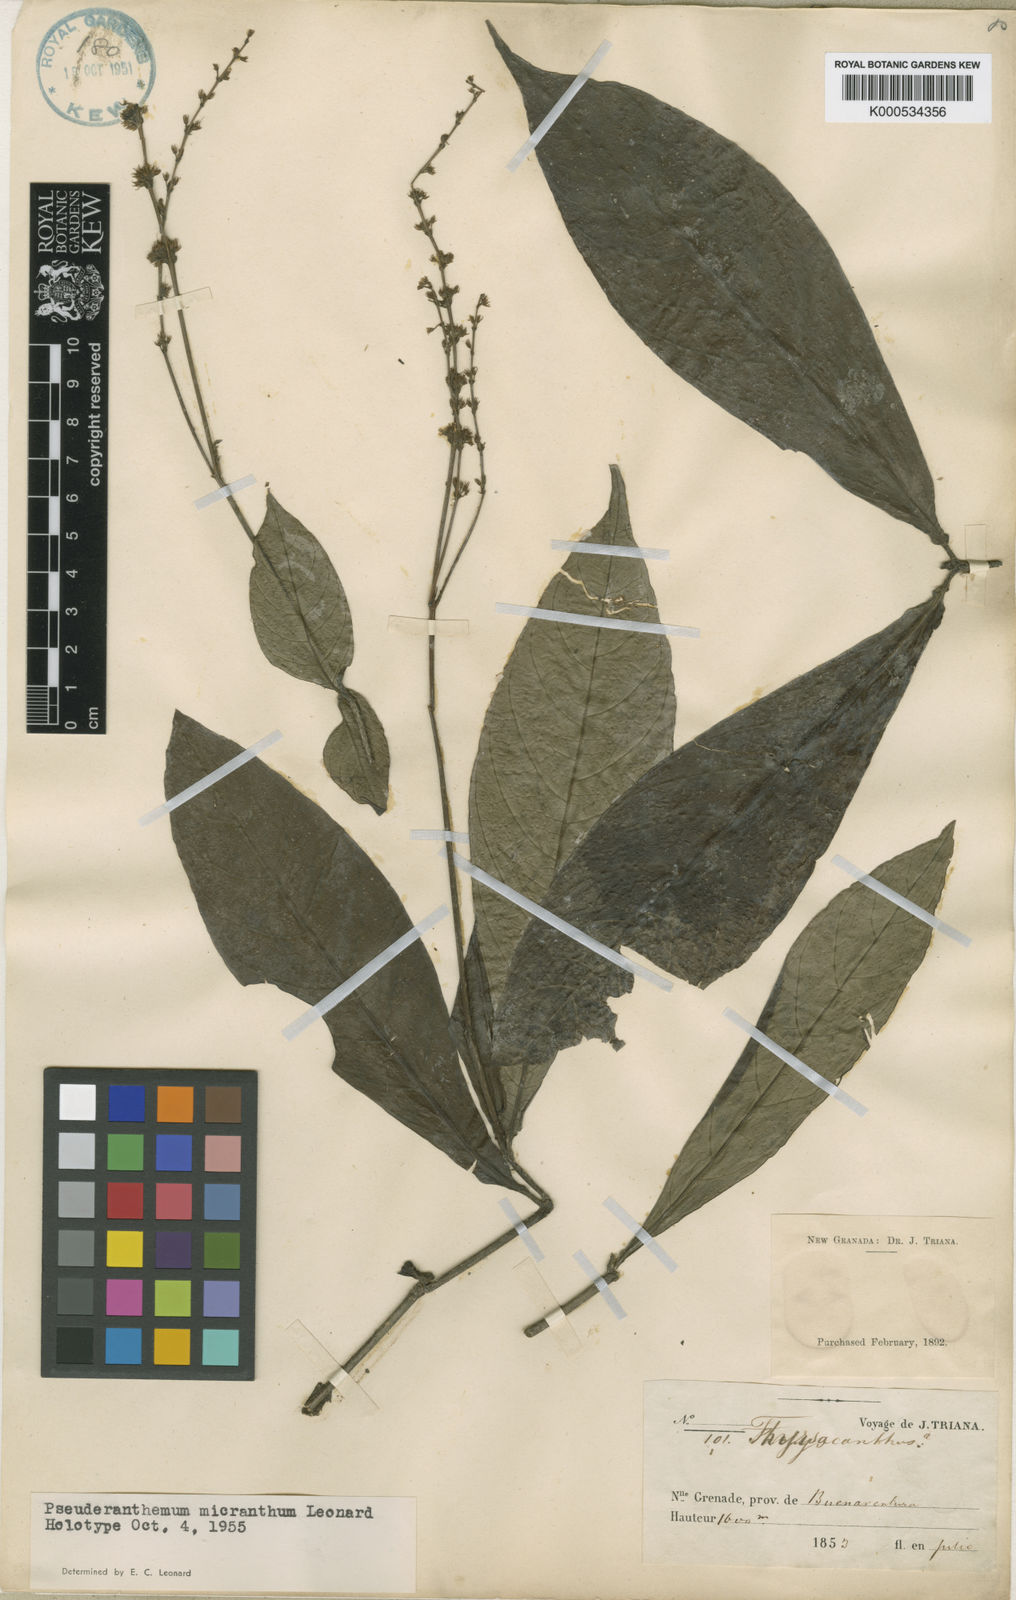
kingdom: Plantae
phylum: Tracheophyta
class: Magnoliopsida
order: Lamiales
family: Acanthaceae
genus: Pseuderanthemum
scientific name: Pseuderanthemum micranthum
